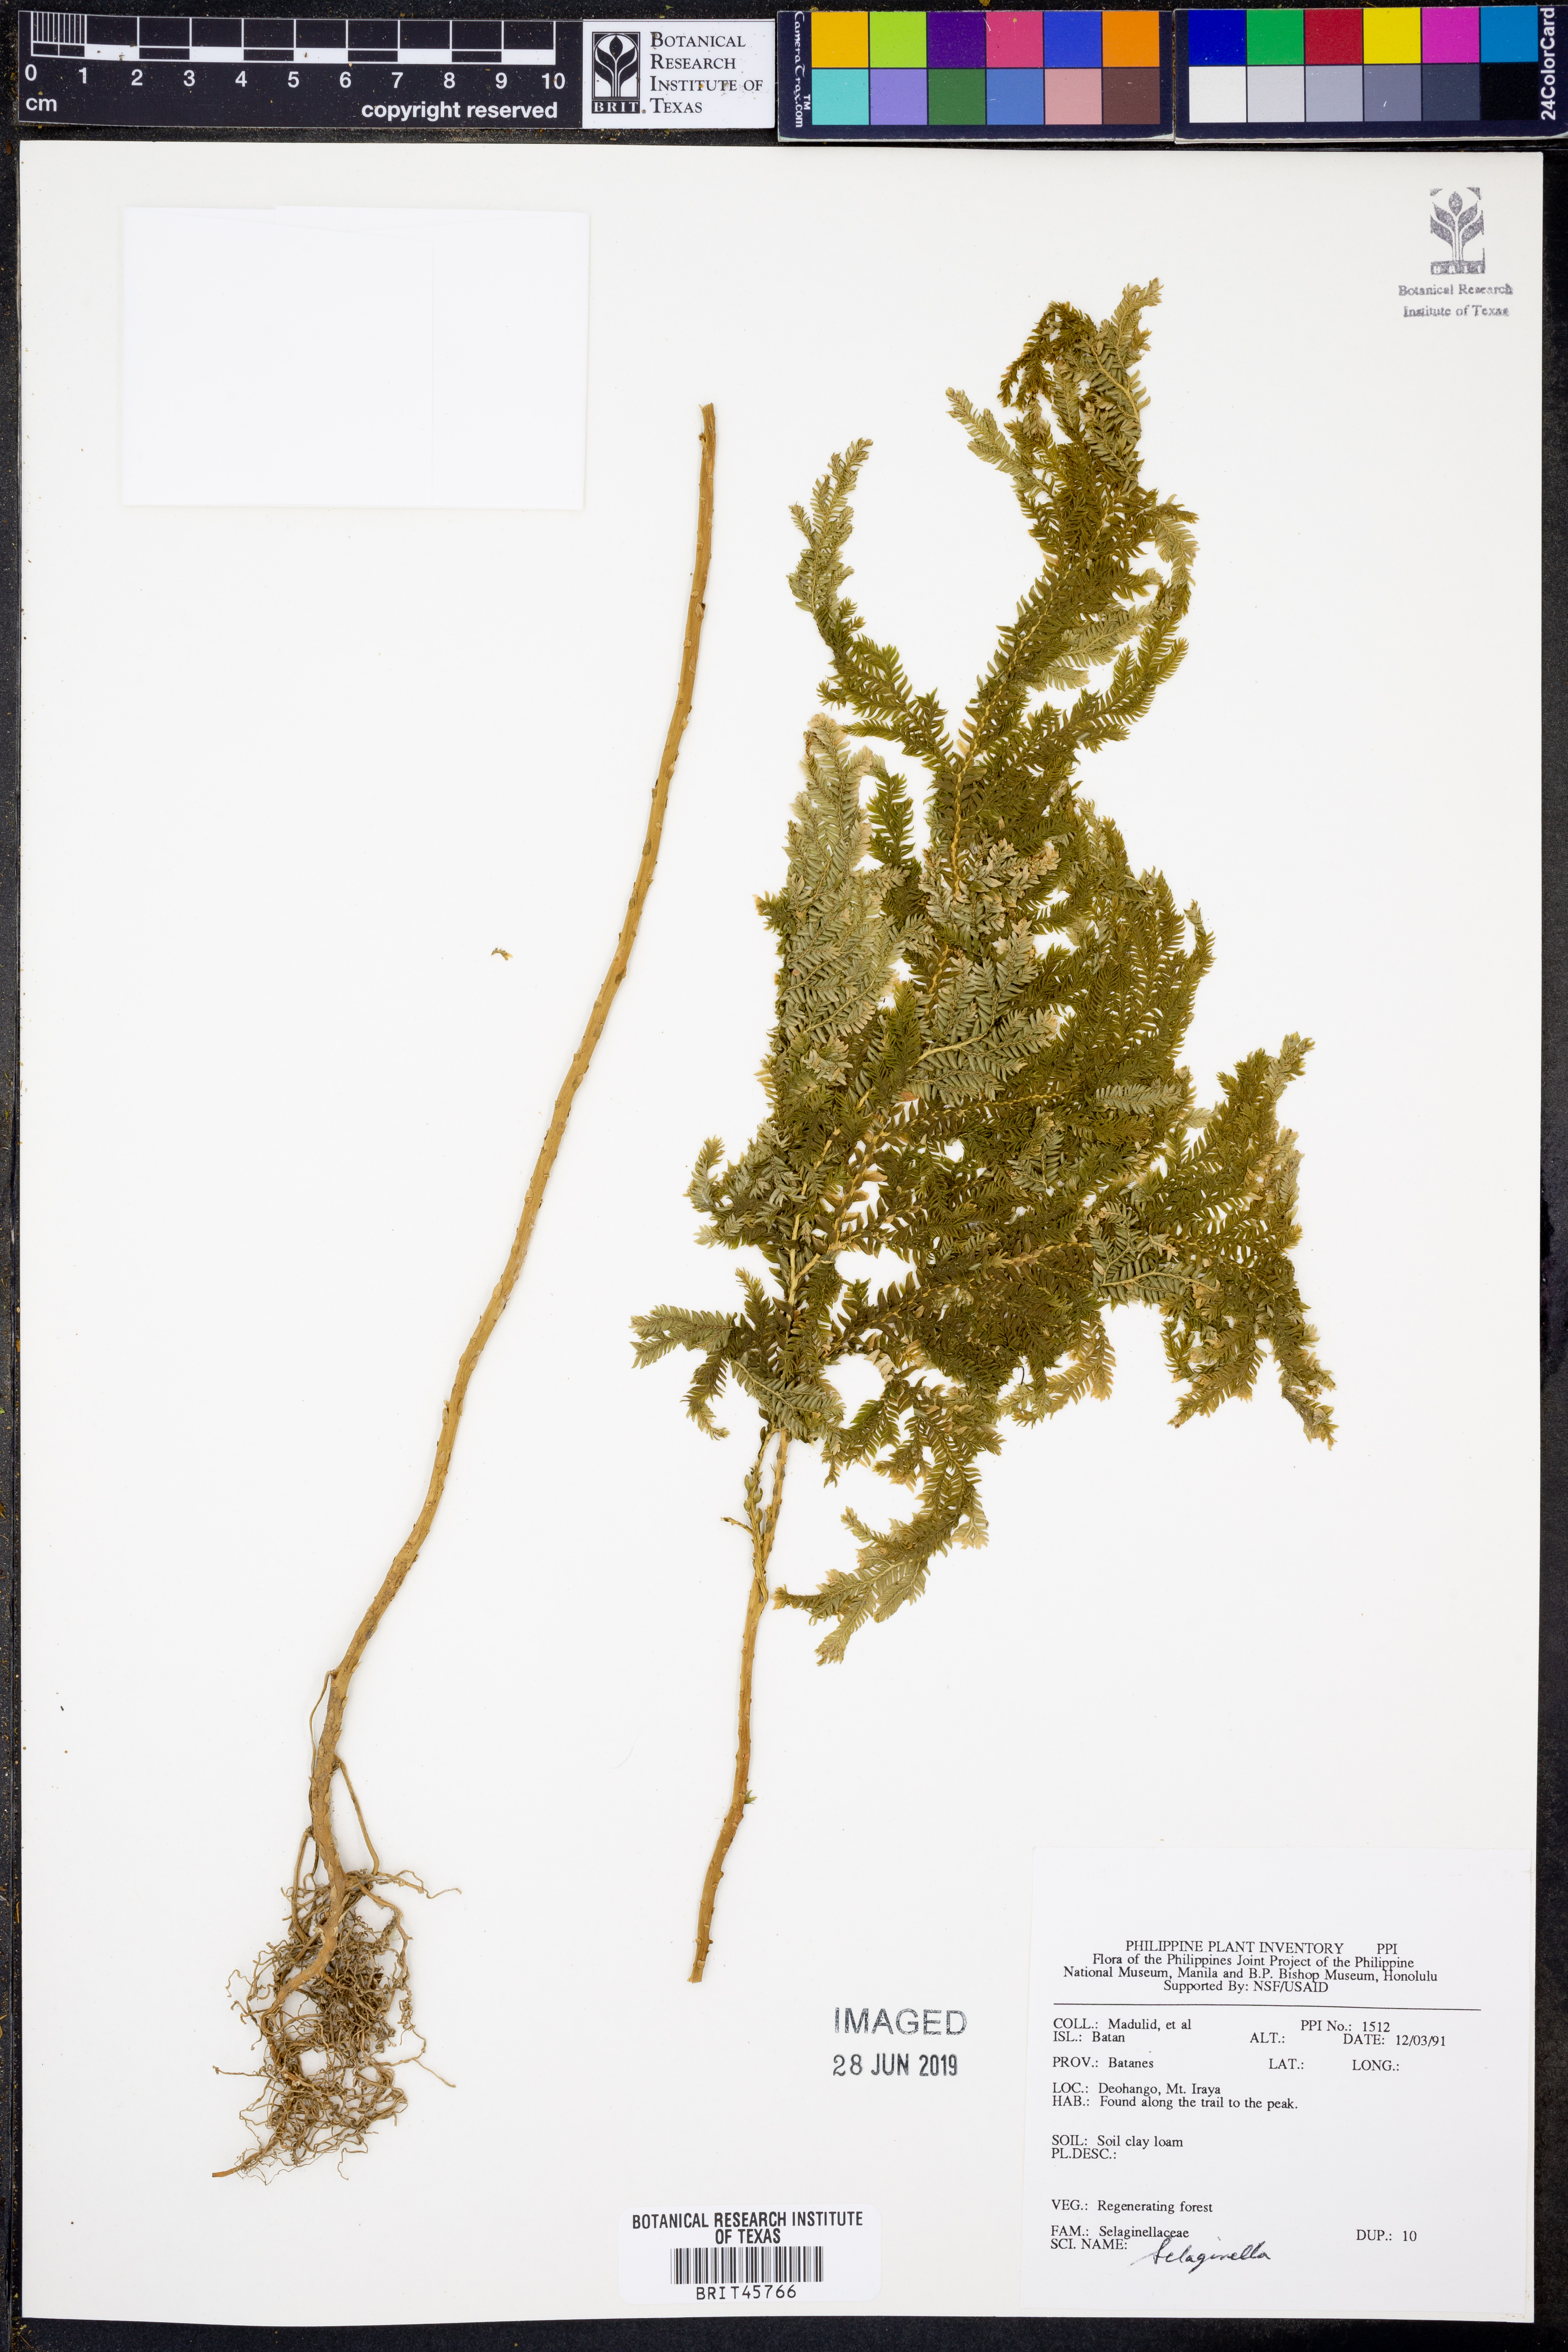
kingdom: Plantae
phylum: Tracheophyta
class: Lycopodiopsida
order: Selaginellales
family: Selaginellaceae
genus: Selaginella
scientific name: Selaginella
